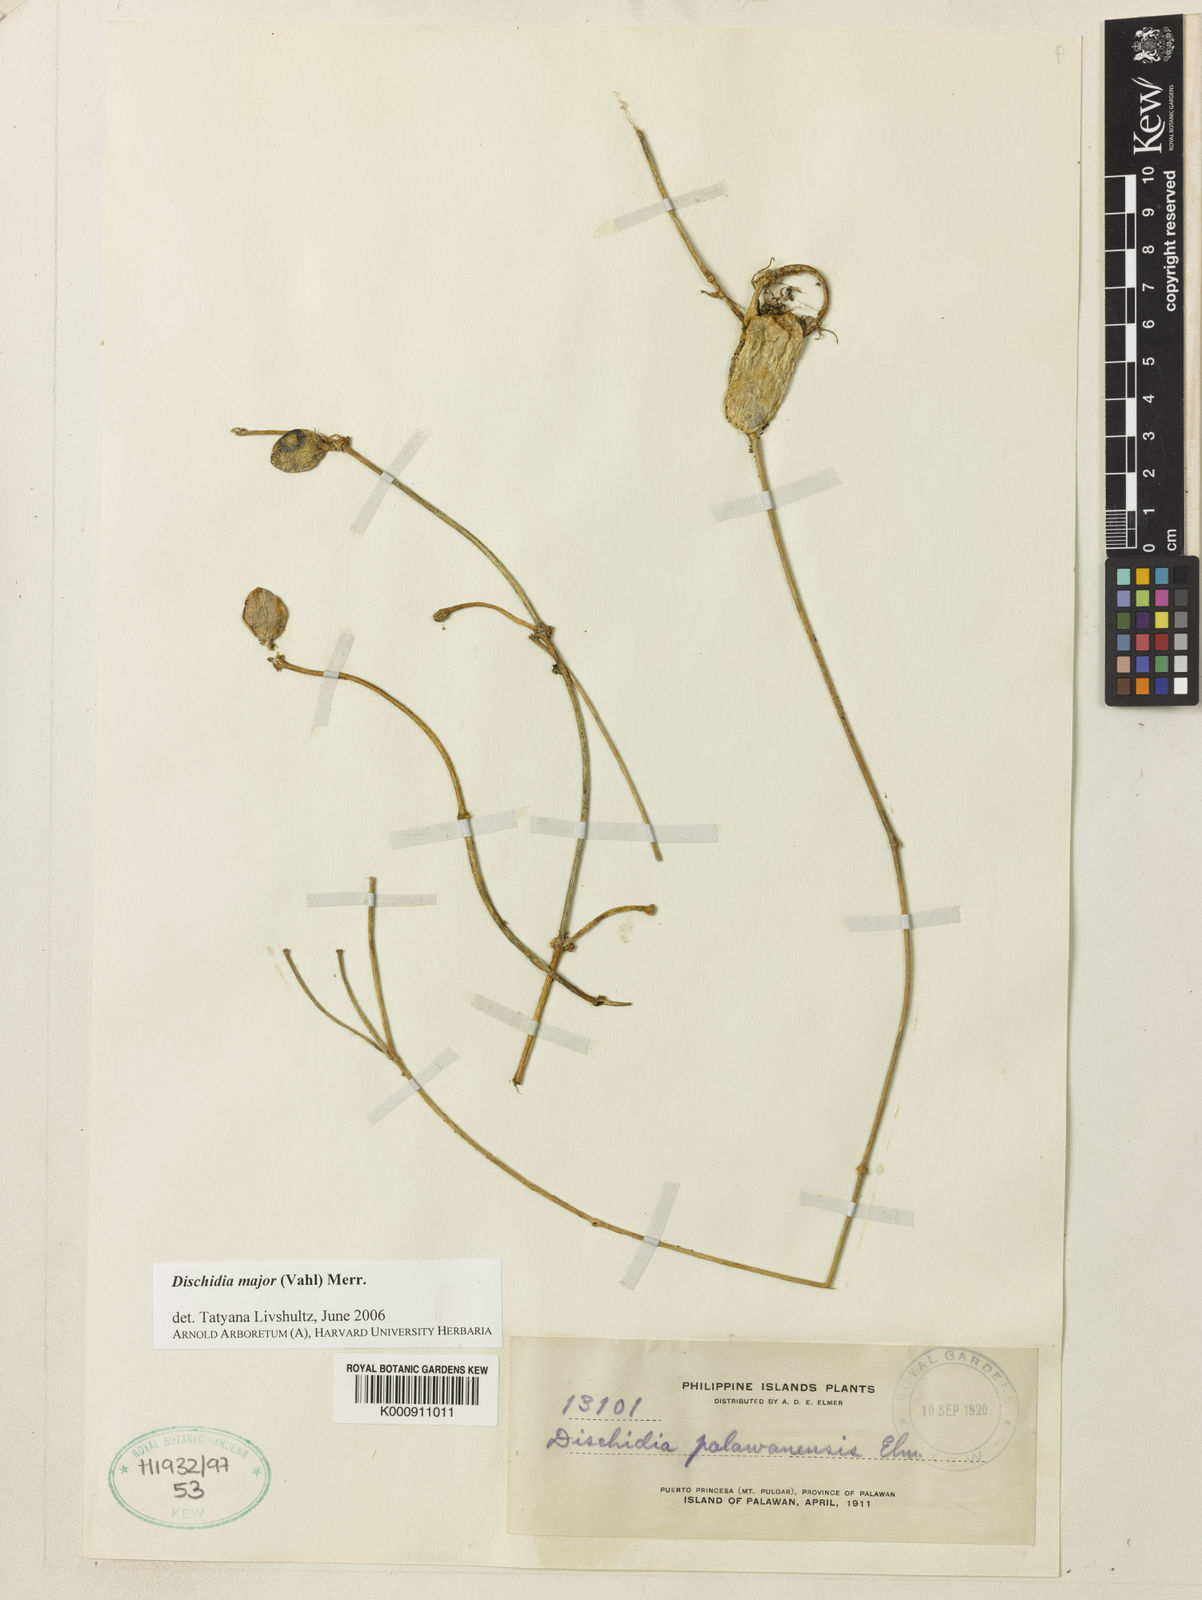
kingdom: Plantae
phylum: Tracheophyta
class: Magnoliopsida
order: Gentianales
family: Apocynaceae
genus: Dischidia
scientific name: Dischidia major
